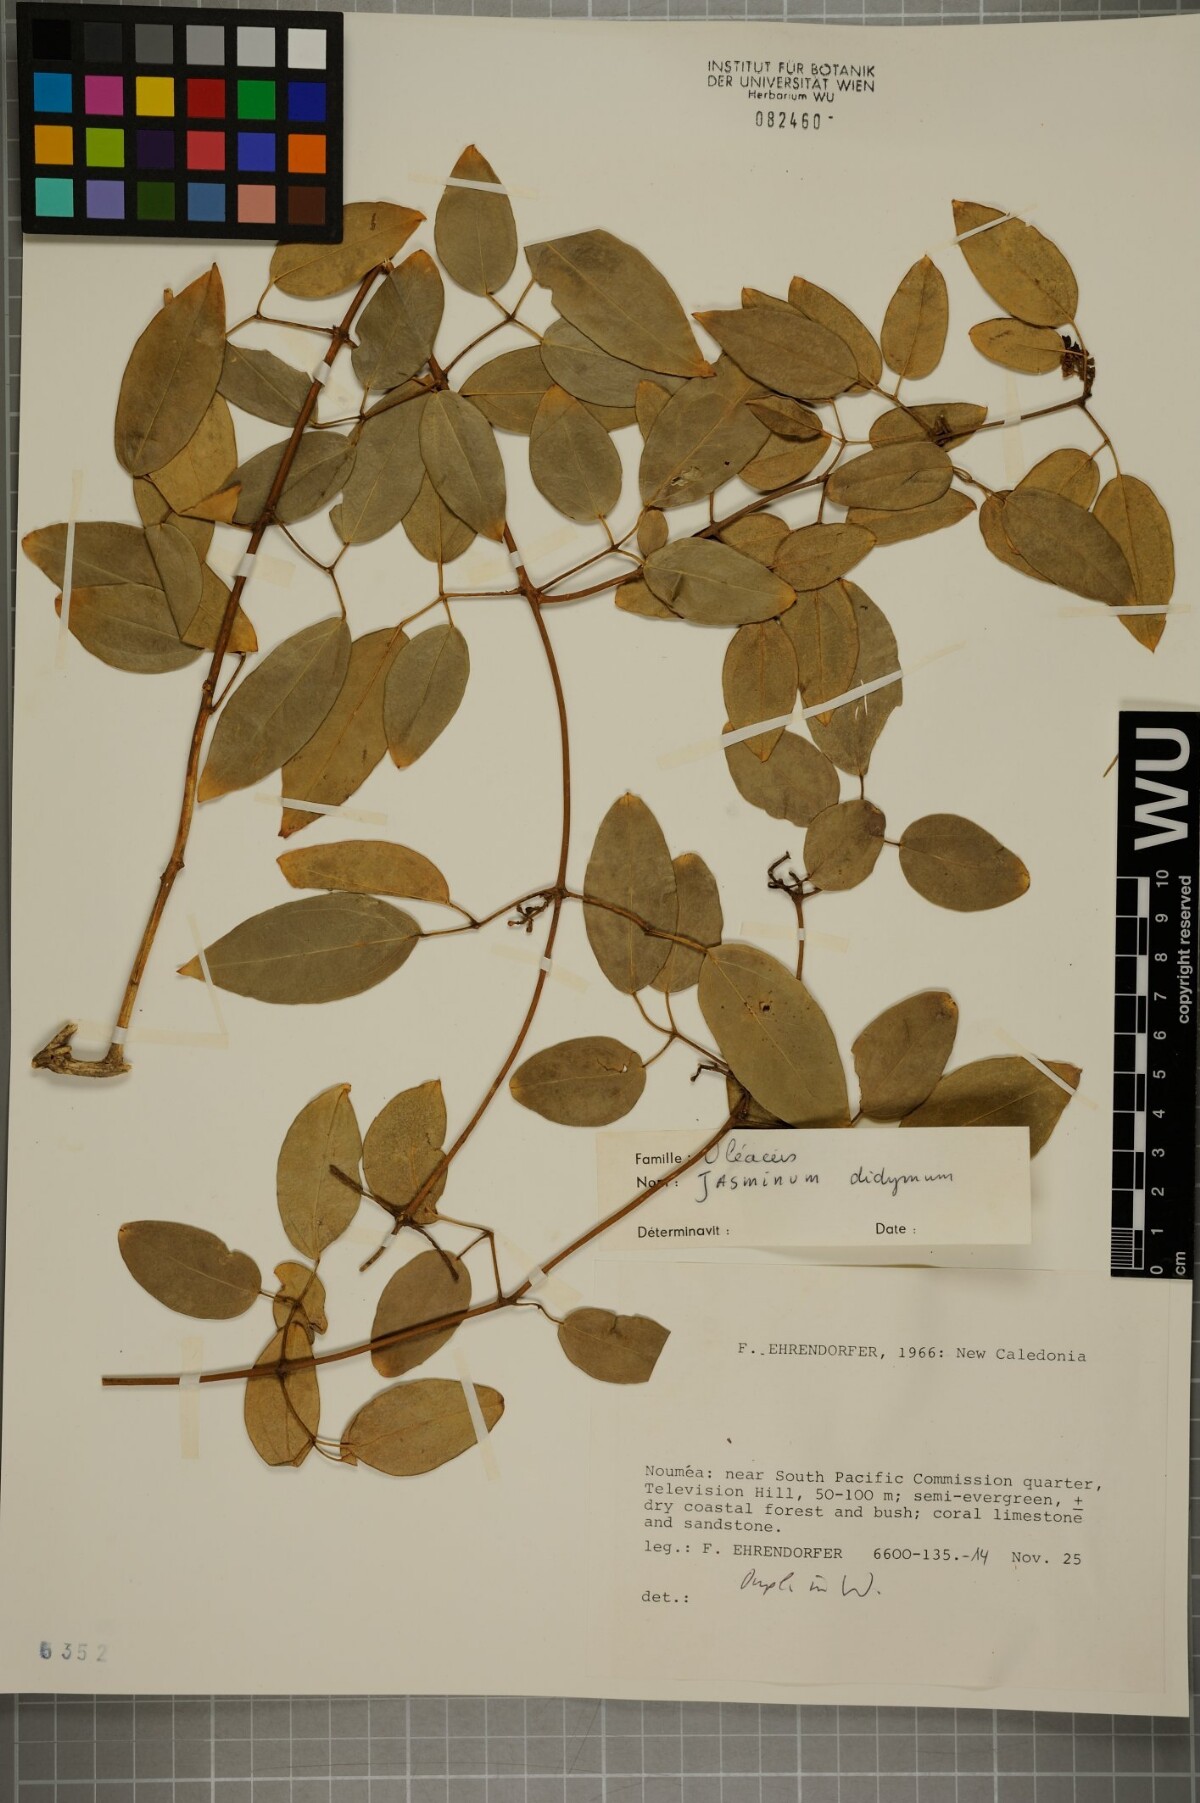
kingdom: Plantae
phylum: Tracheophyta
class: Magnoliopsida
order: Lamiales
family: Oleaceae
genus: Jasminum
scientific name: Jasminum didymum
